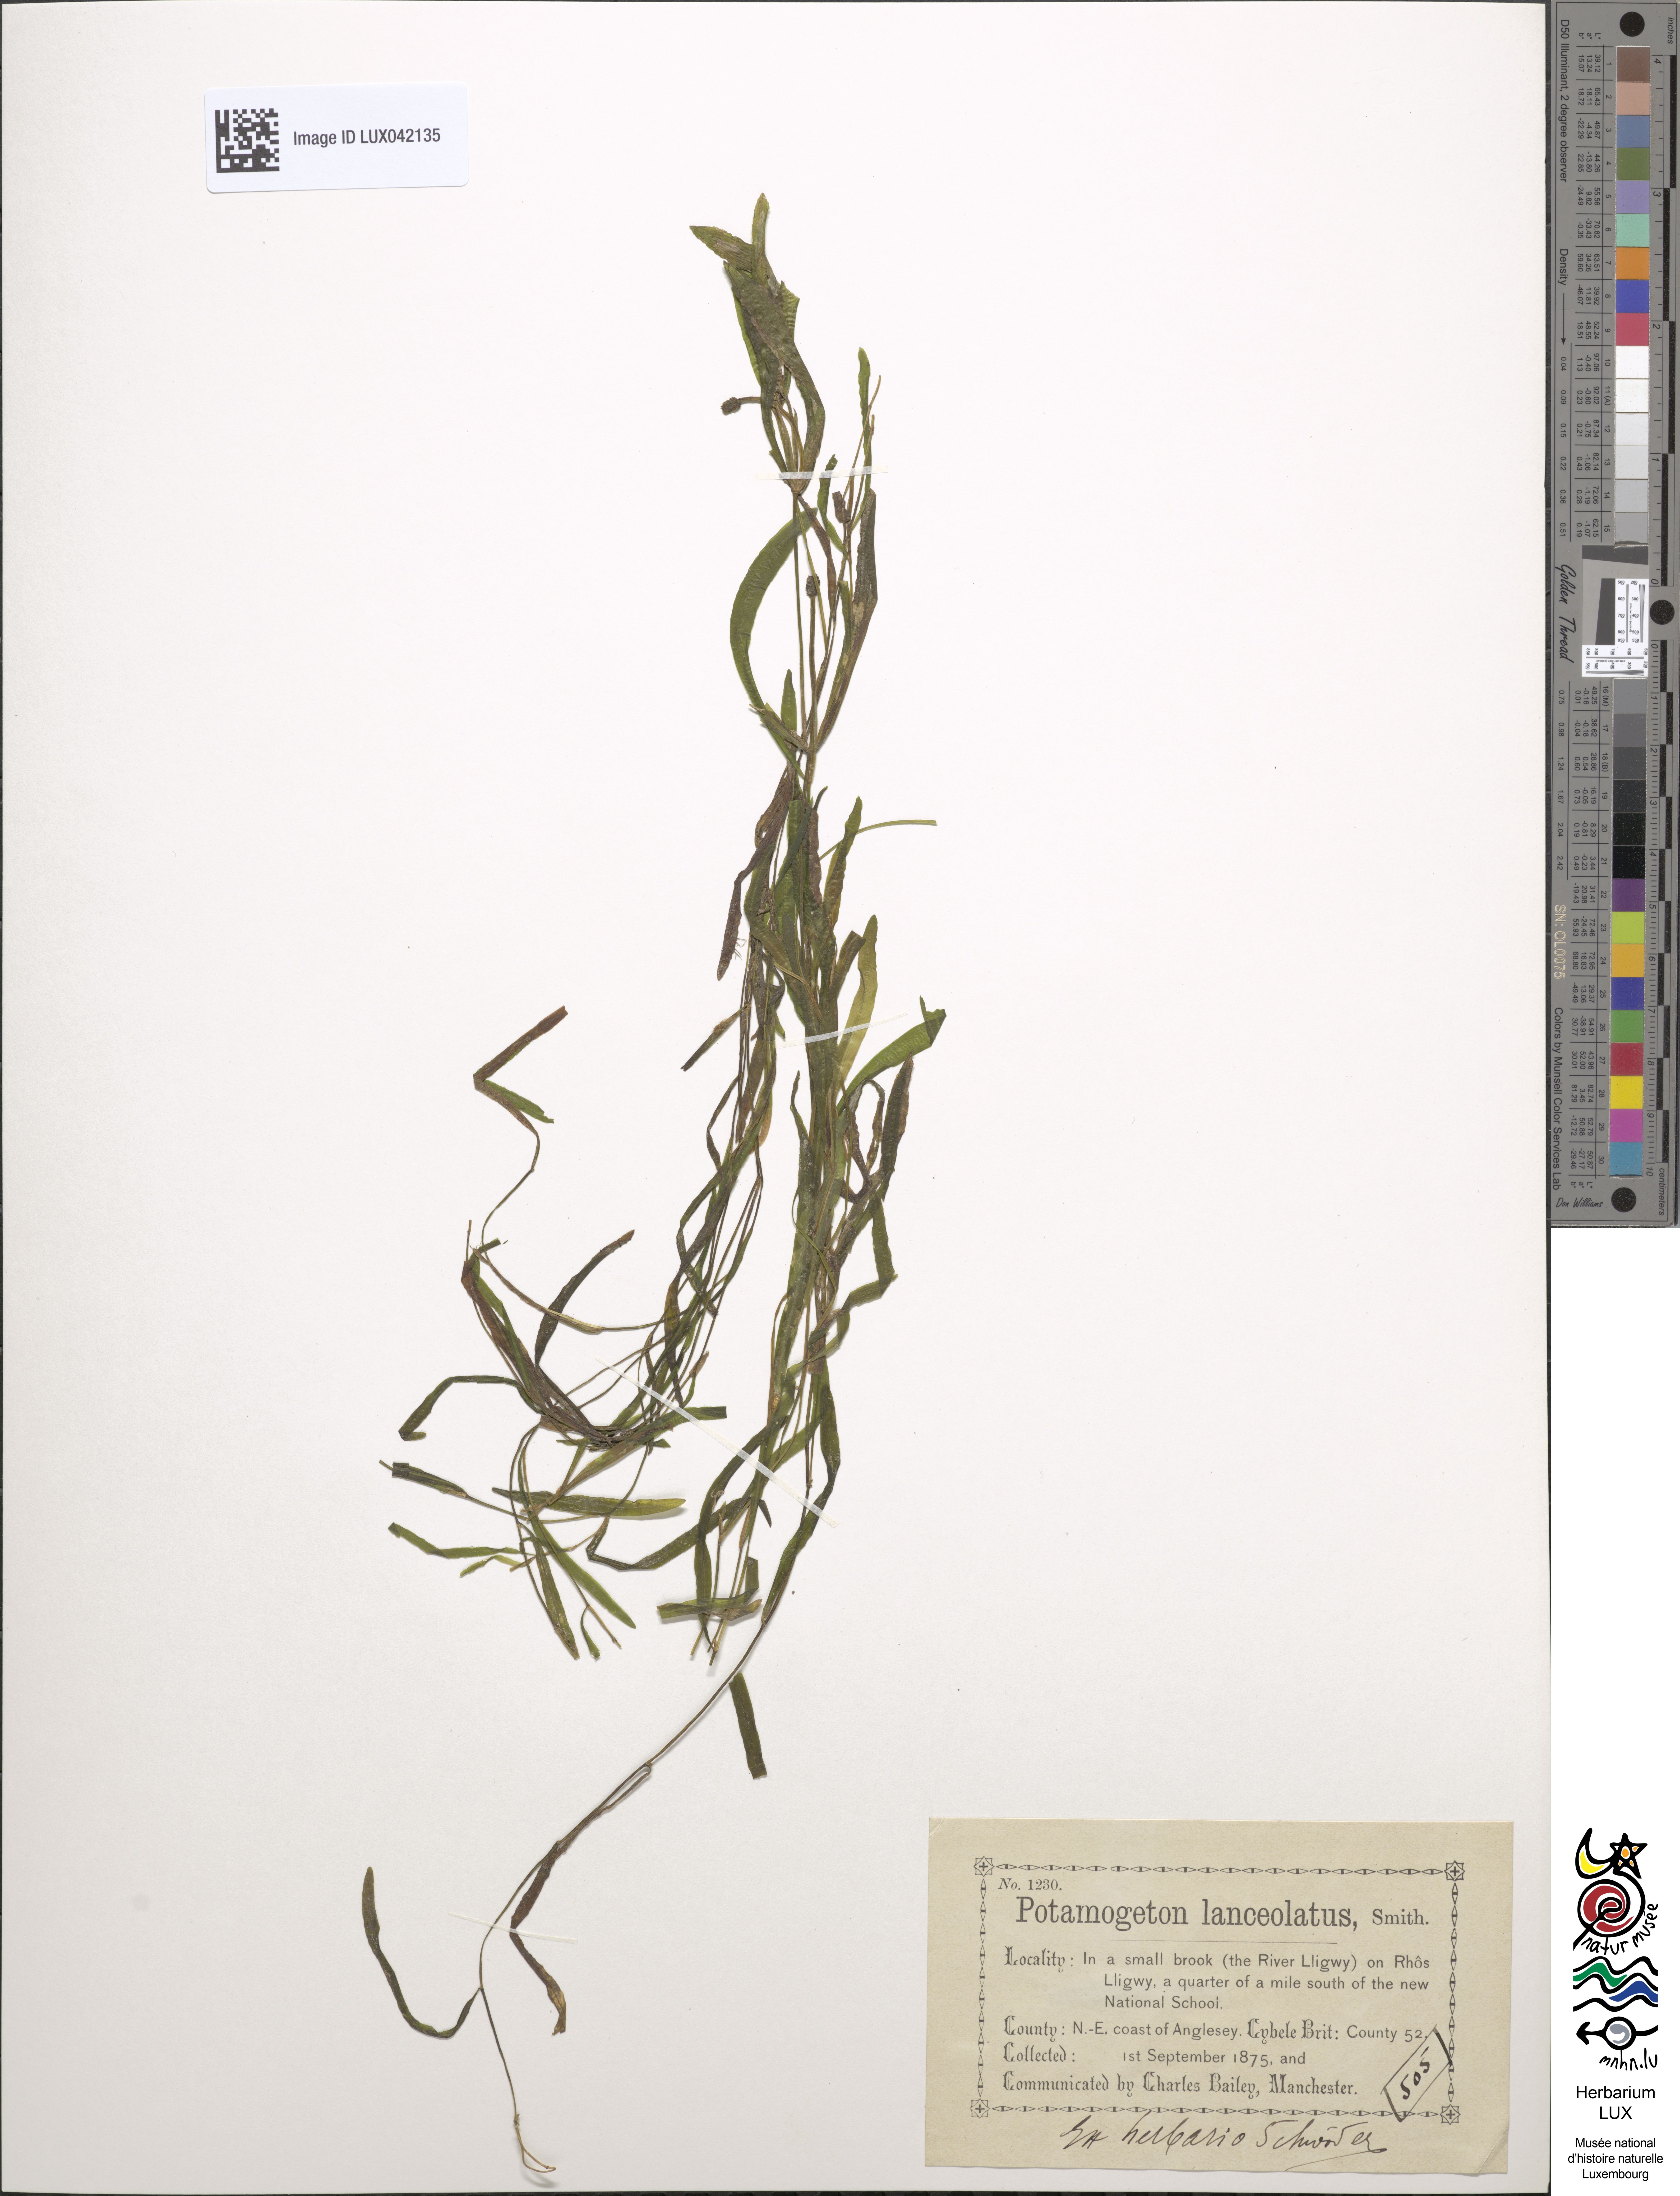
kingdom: Plantae
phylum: Tracheophyta
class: Liliopsida
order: Alismatales
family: Potamogetonaceae
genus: Potamogeton
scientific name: Potamogeton lanceolatus
